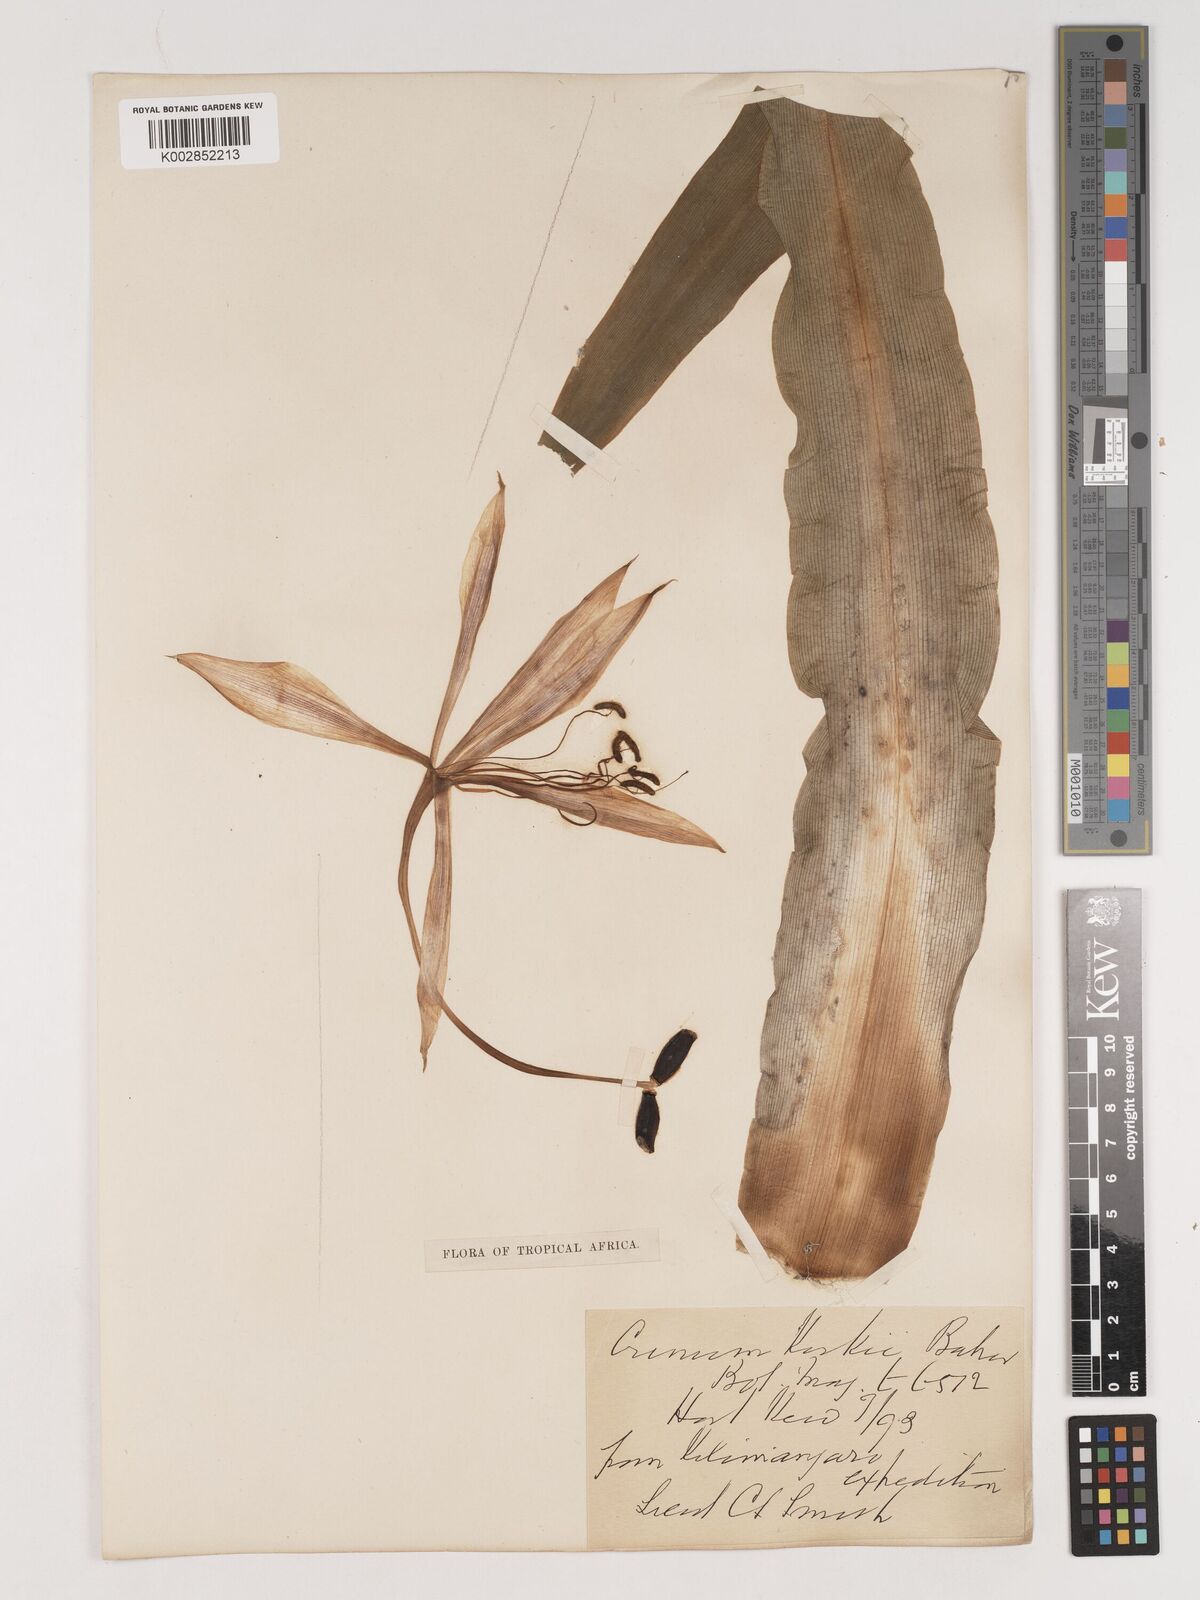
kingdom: Plantae
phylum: Tracheophyta
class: Liliopsida
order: Asparagales
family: Amaryllidaceae
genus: Crinum
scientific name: Crinum kirkii
